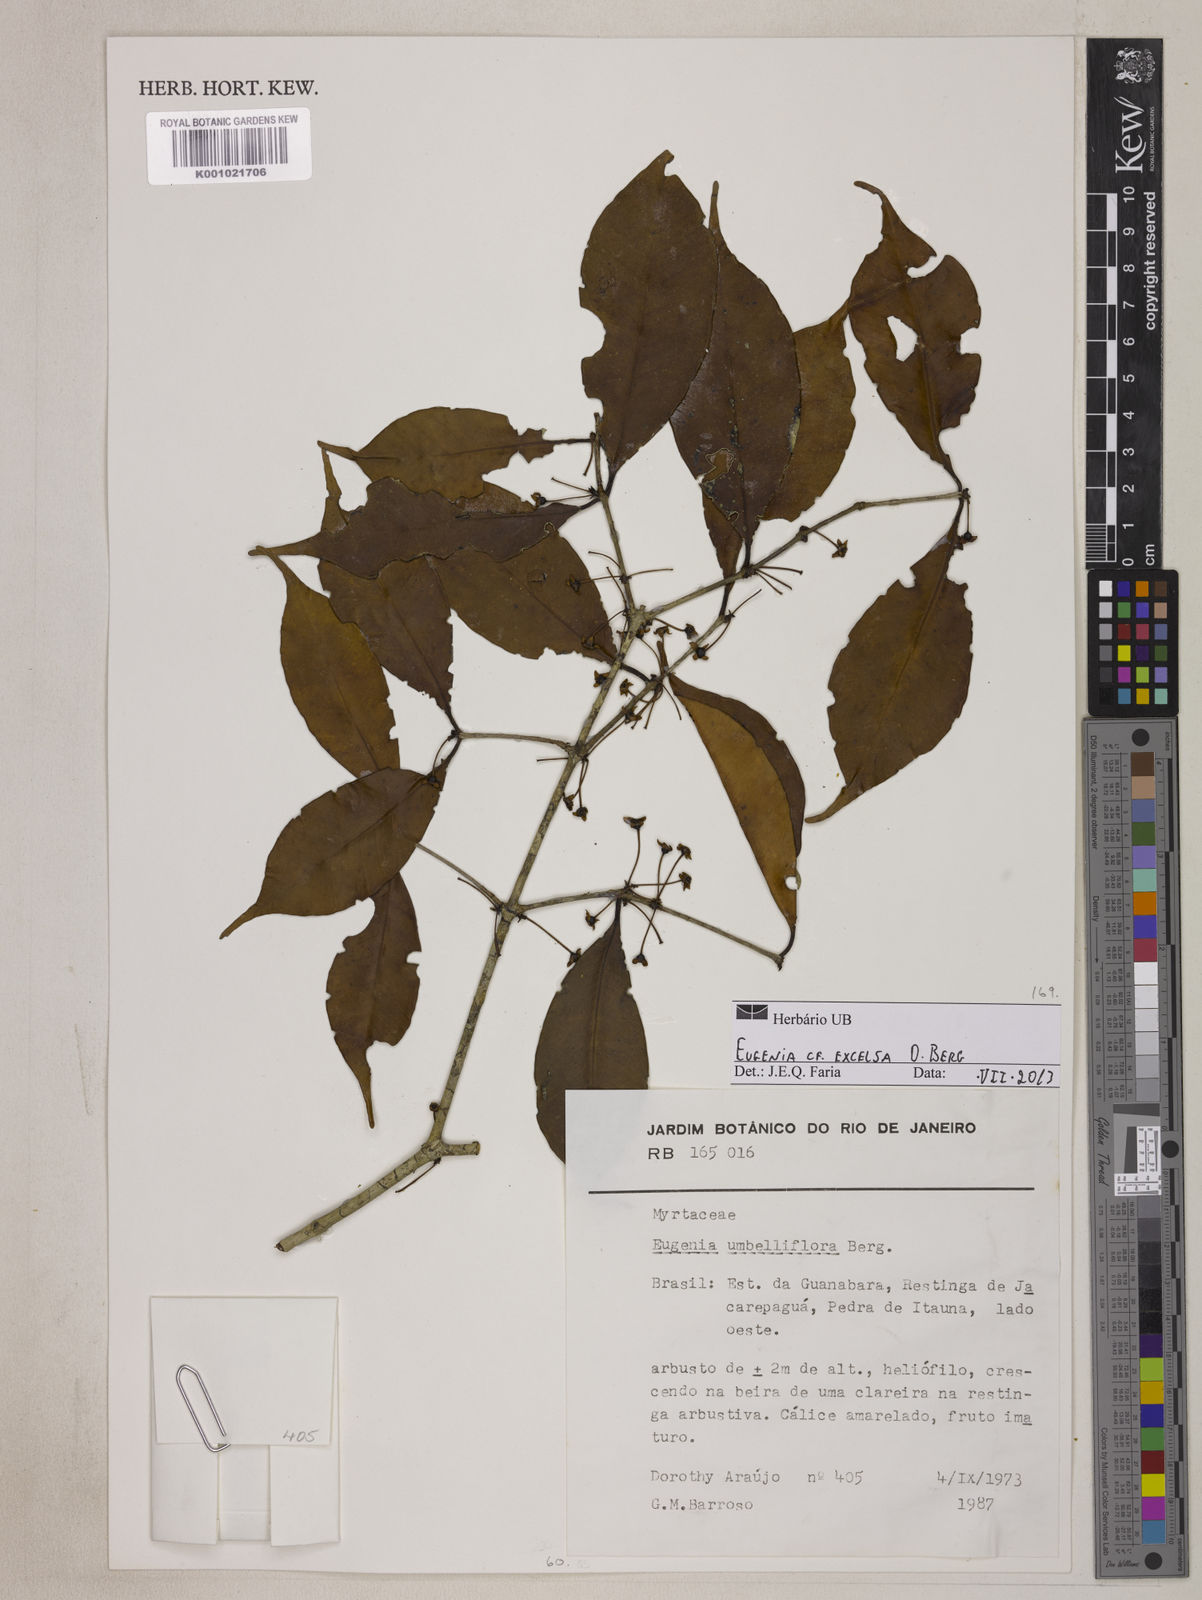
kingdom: Plantae
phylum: Tracheophyta
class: Magnoliopsida
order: Myrtales
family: Myrtaceae
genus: Eugenia
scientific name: Eugenia excelsa
